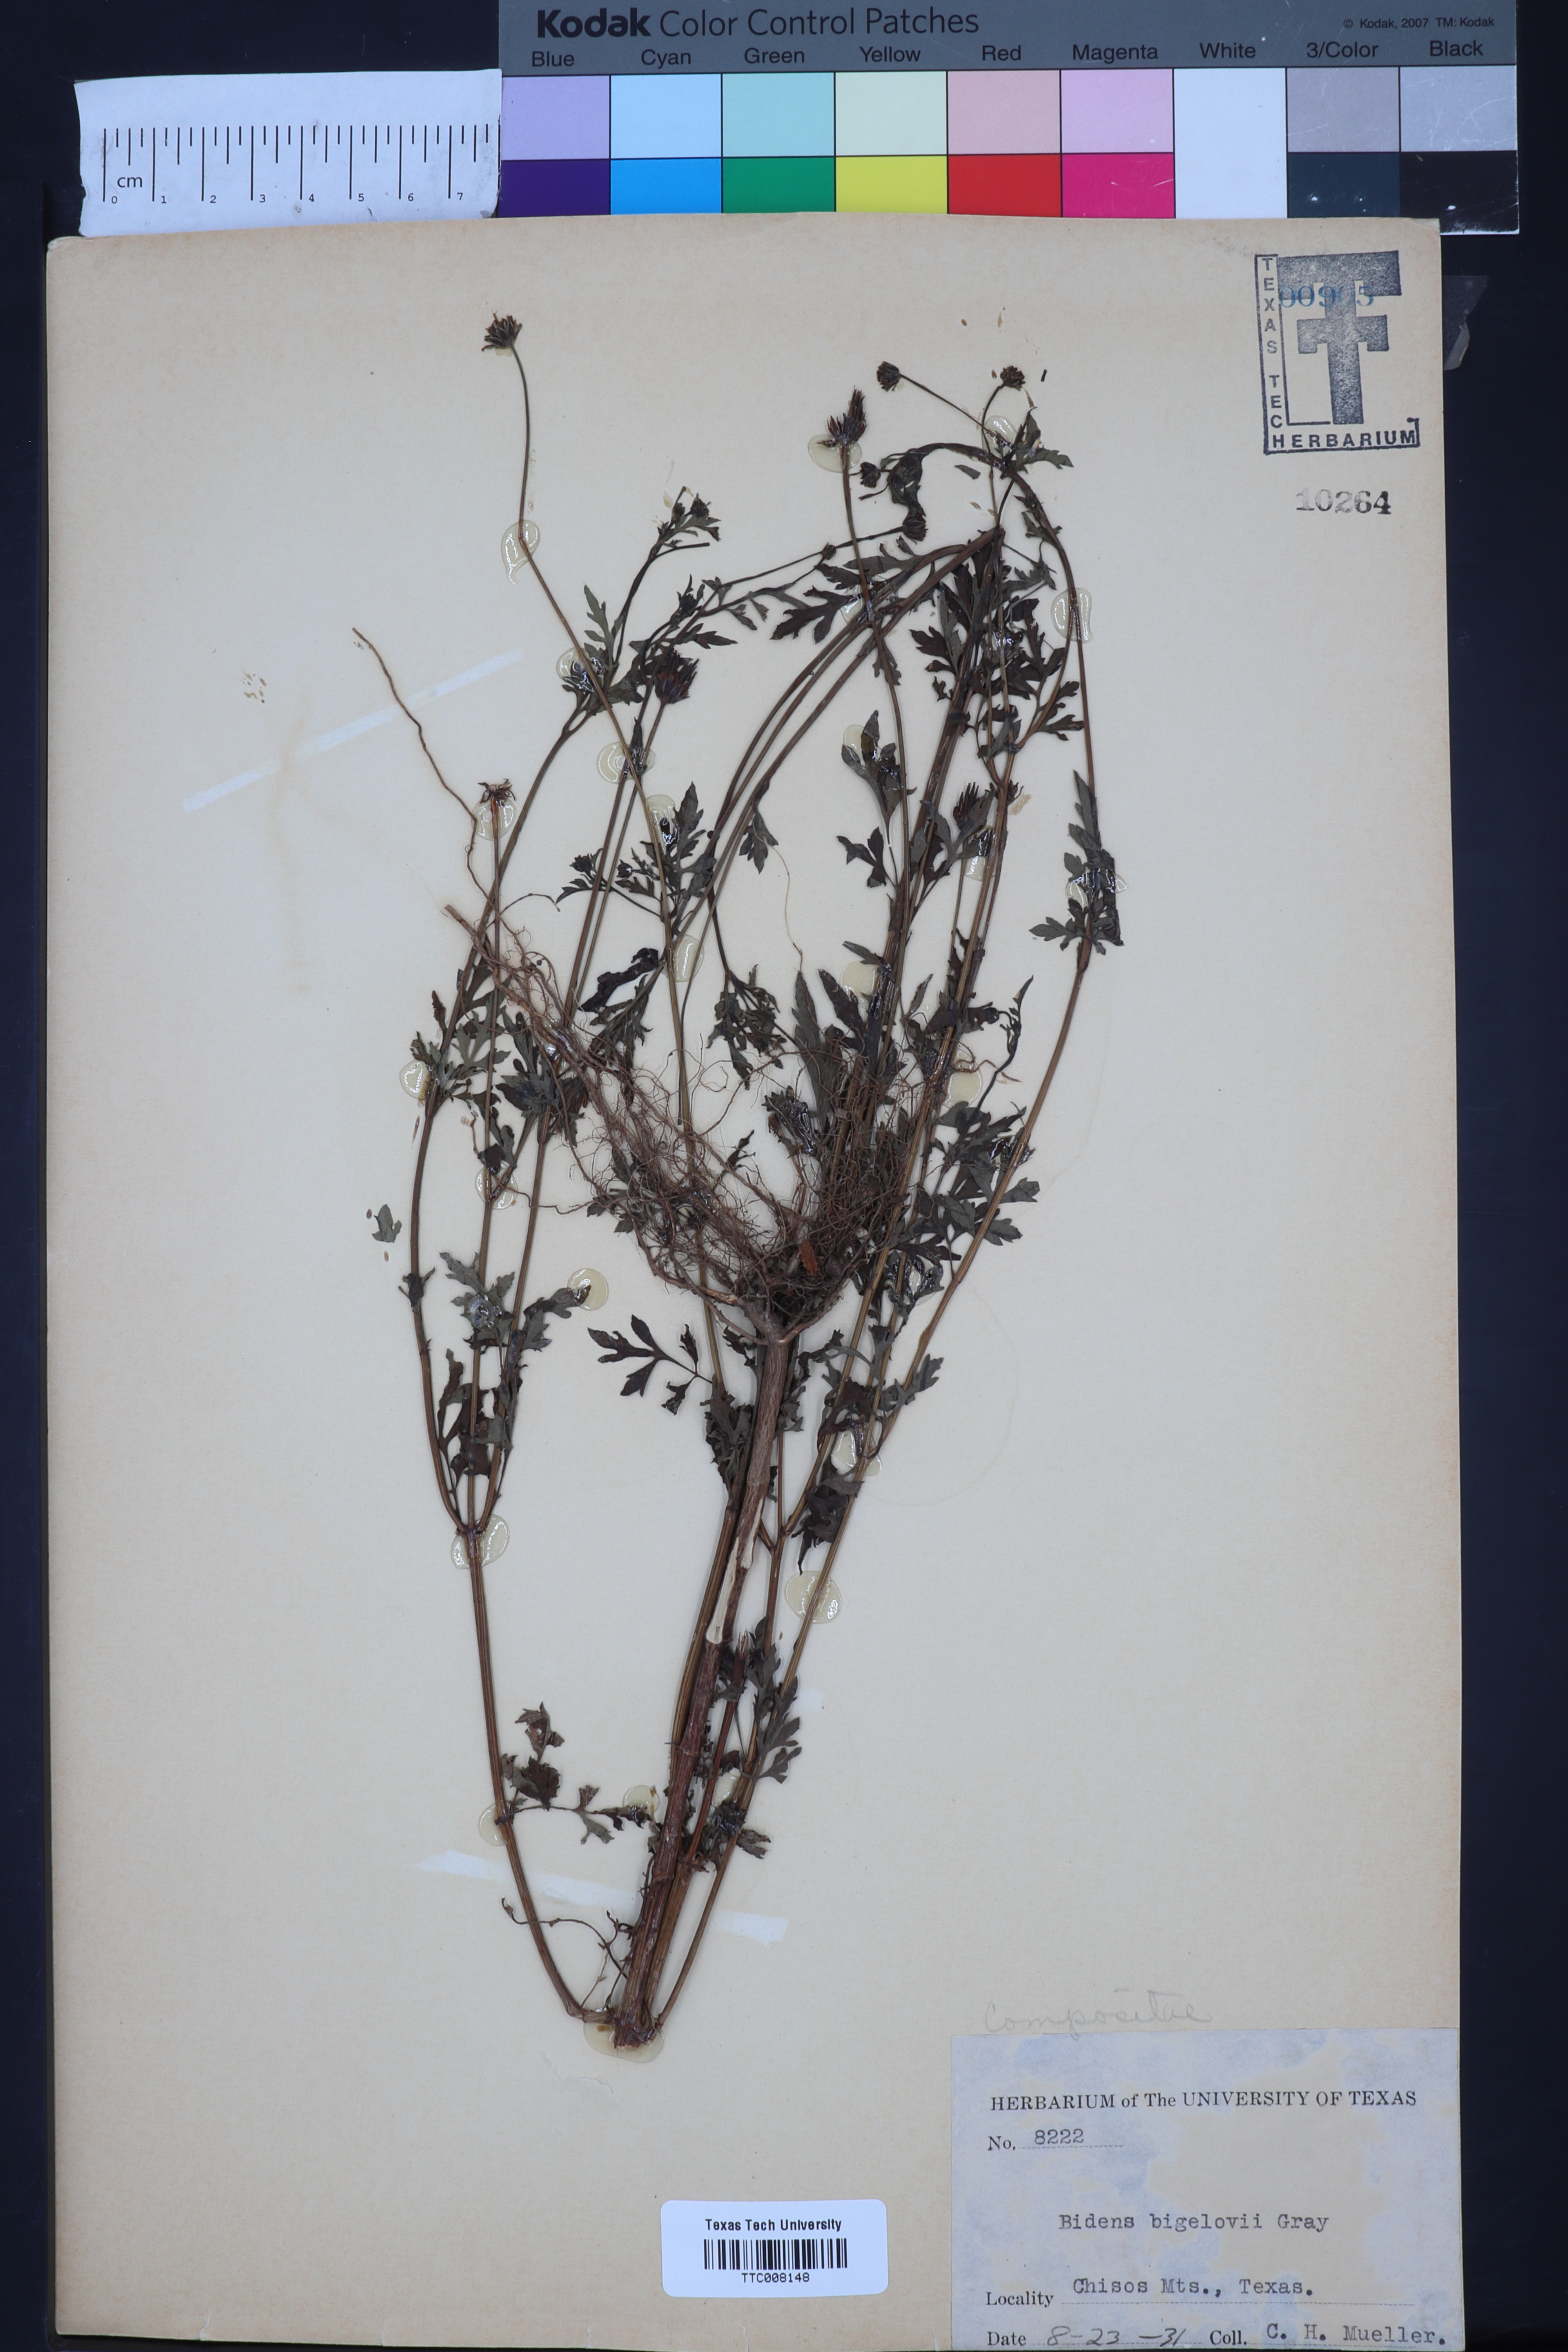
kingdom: Plantae
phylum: Tracheophyta
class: Magnoliopsida
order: Asterales
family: Asteraceae
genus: Bidens
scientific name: Bidens bigelovii
